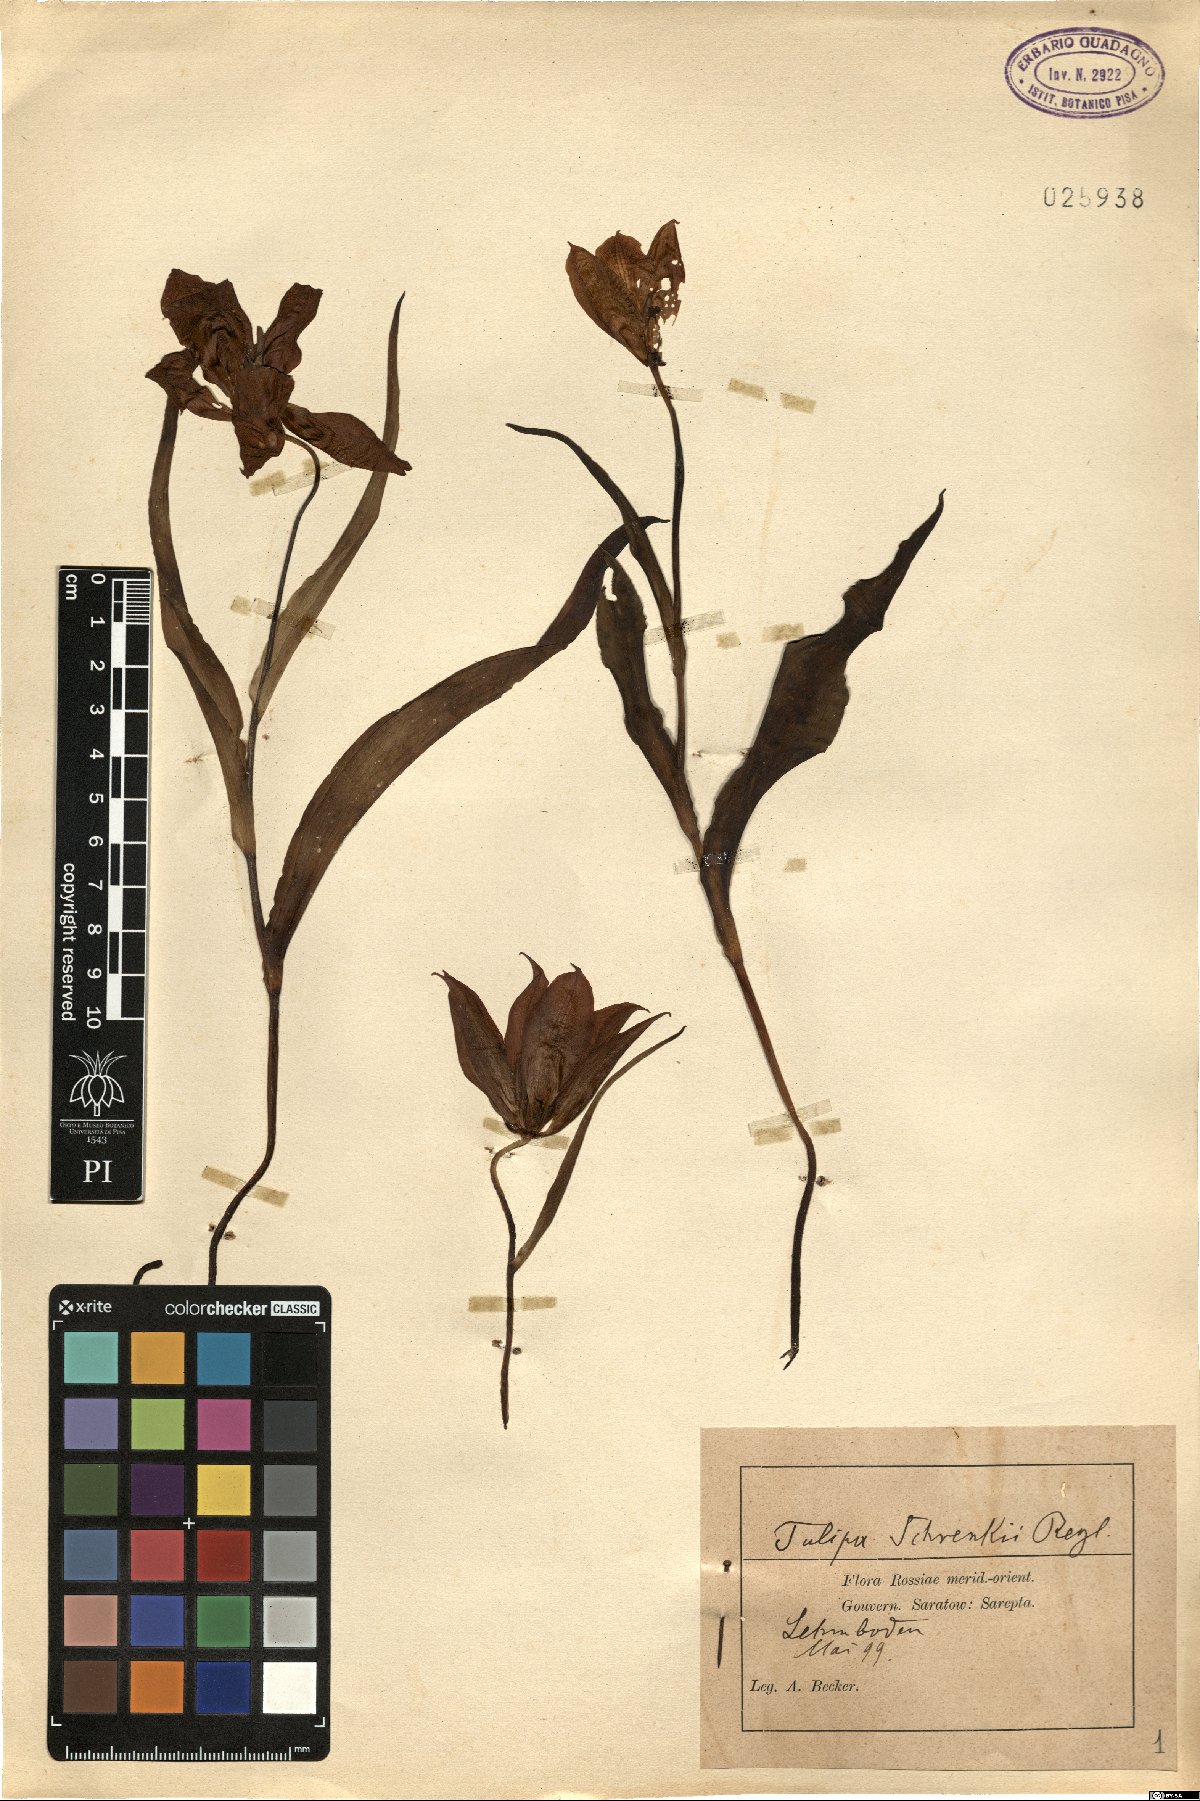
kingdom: Plantae
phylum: Tracheophyta
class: Liliopsida
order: Liliales
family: Liliaceae
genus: Tulipa
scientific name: Tulipa suaveolens
